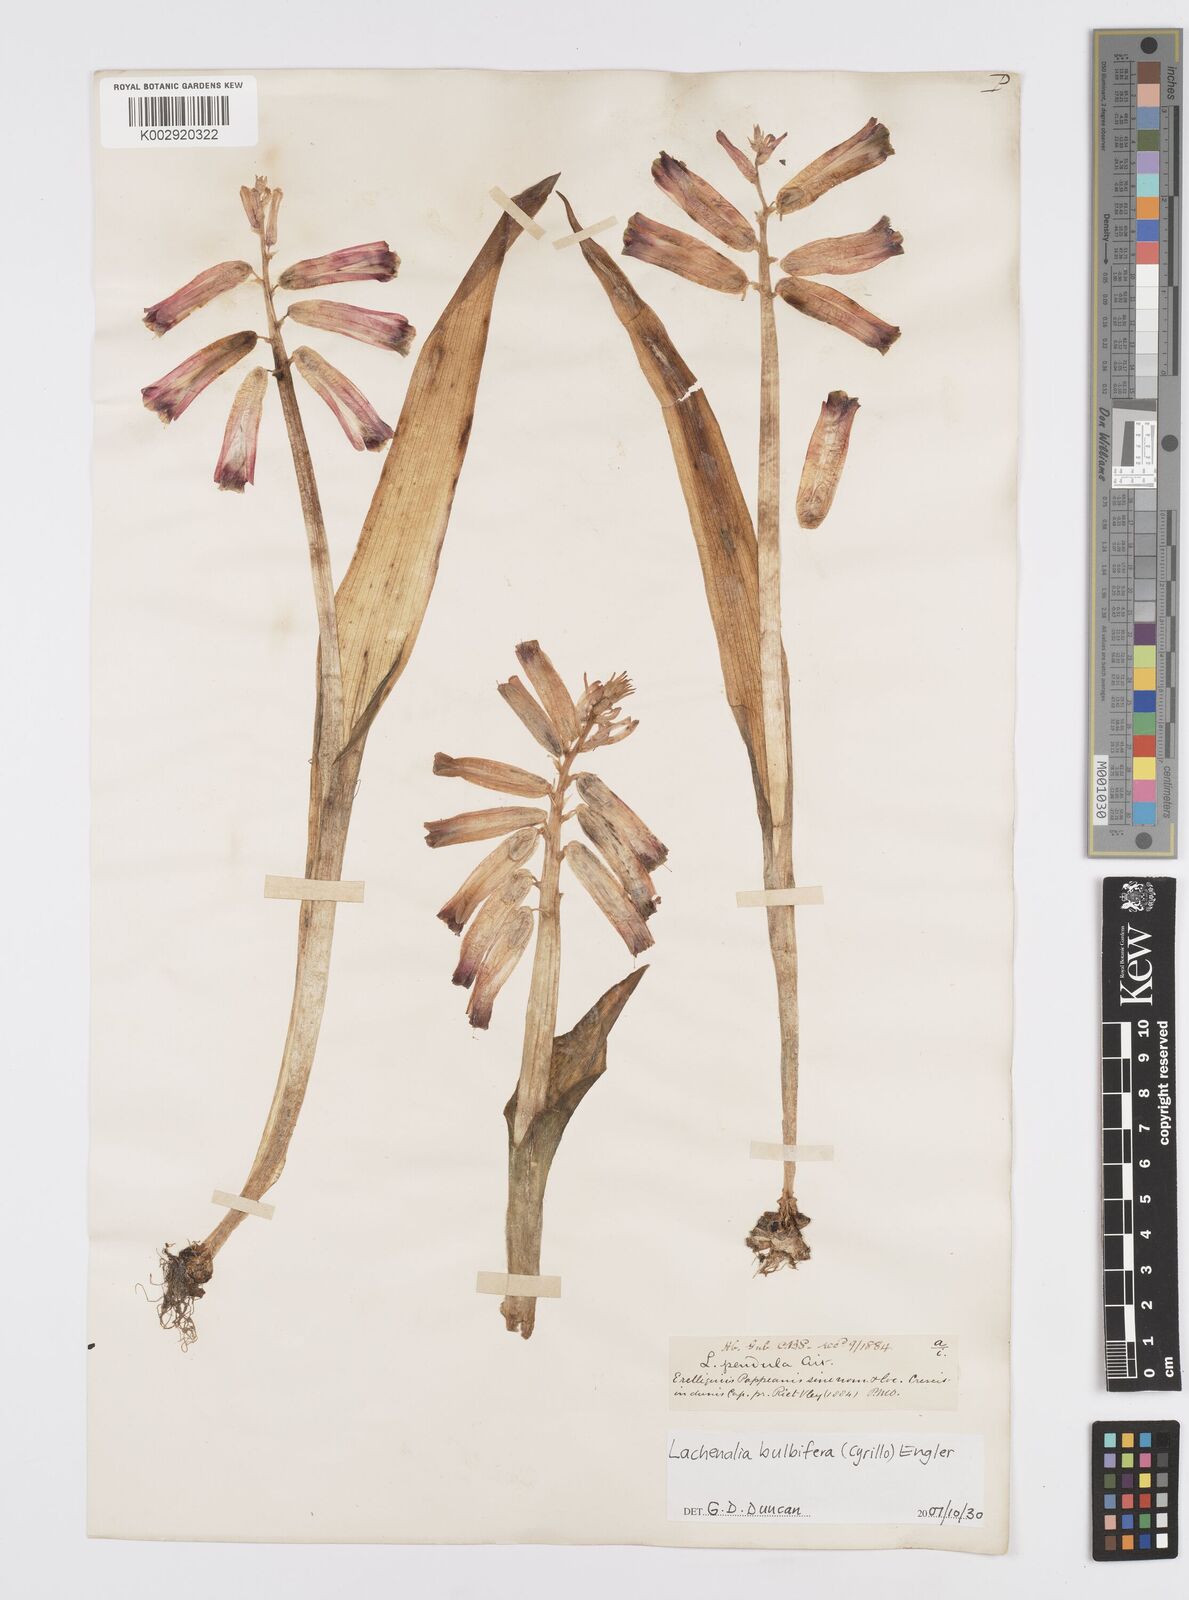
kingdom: Plantae
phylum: Tracheophyta
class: Liliopsida
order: Asparagales
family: Asparagaceae
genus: Lachenalia
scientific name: Lachenalia bulbifera
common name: Red lachenalia
